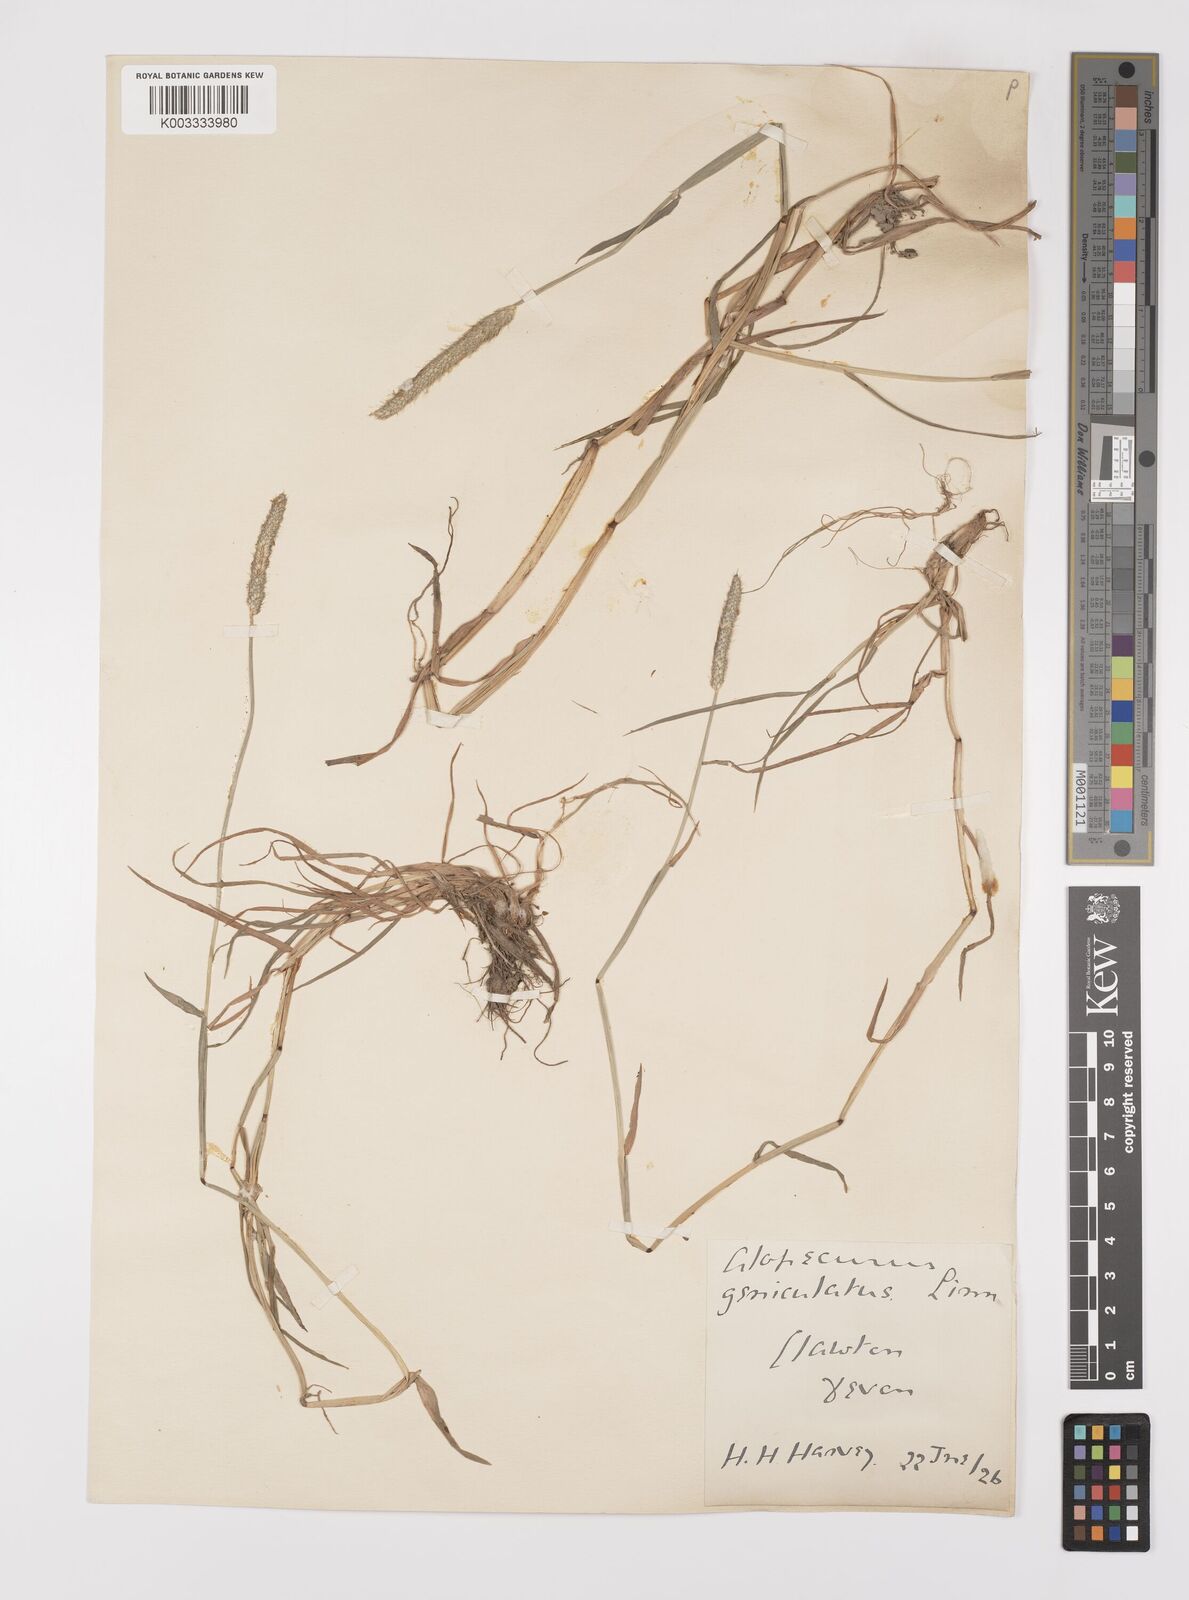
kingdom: Plantae
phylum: Tracheophyta
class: Liliopsida
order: Poales
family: Poaceae
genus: Alopecurus
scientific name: Alopecurus geniculatus
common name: Water foxtail
